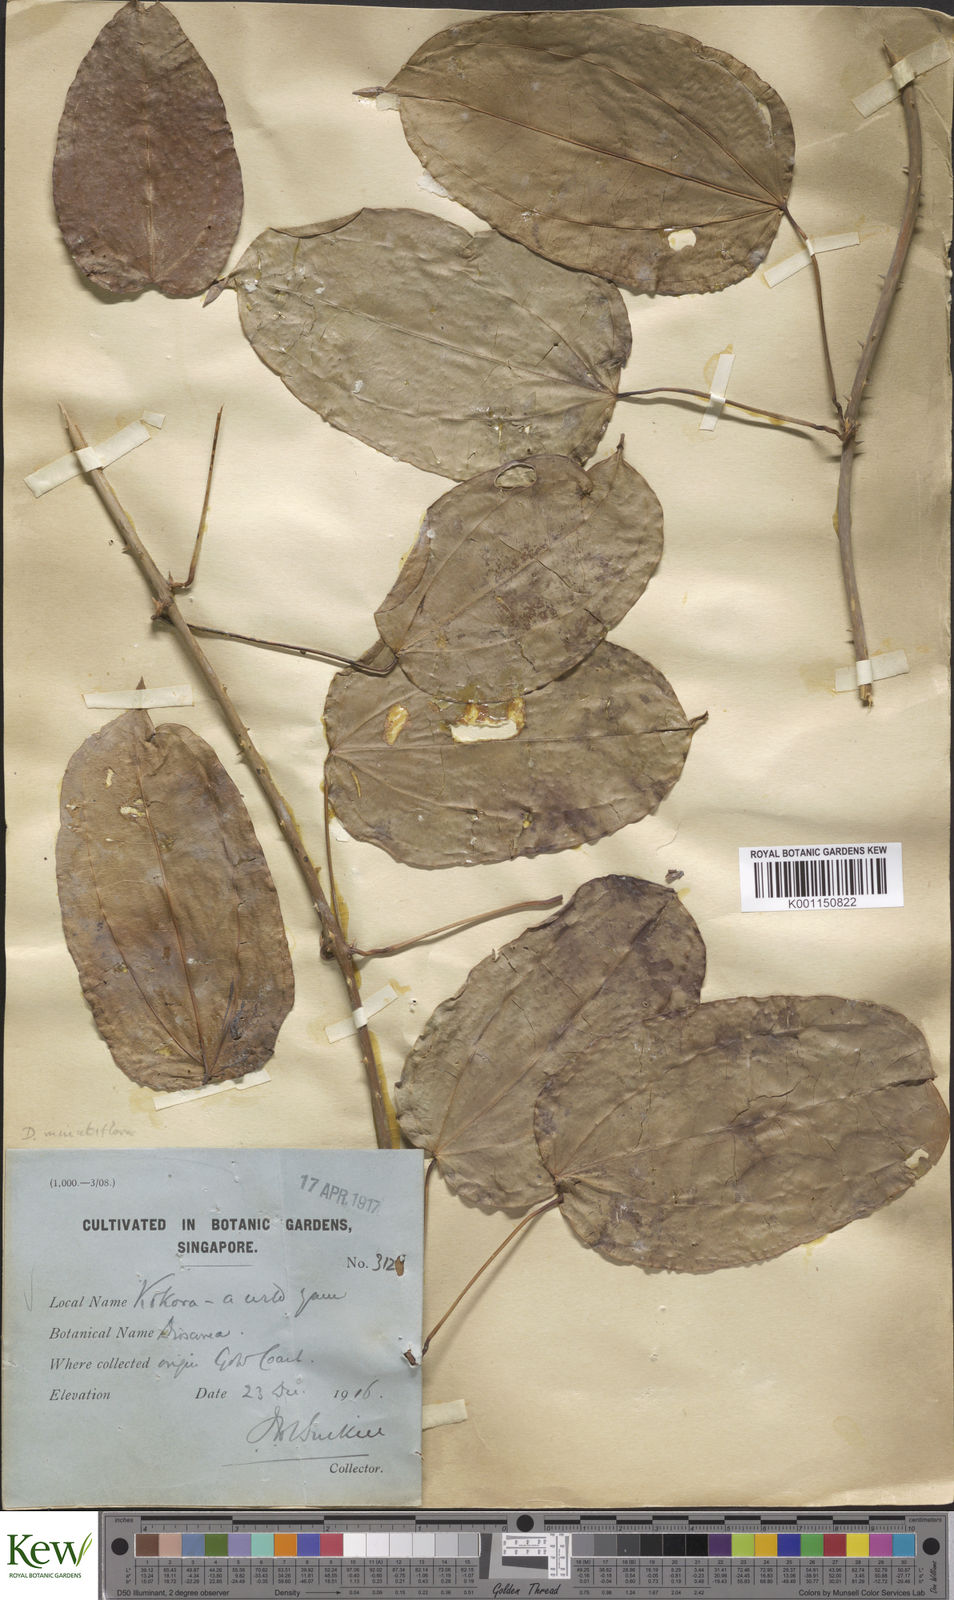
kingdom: Plantae
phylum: Tracheophyta
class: Liliopsida
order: Dioscoreales
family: Dioscoreaceae
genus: Dioscorea
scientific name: Dioscorea minutiflora
